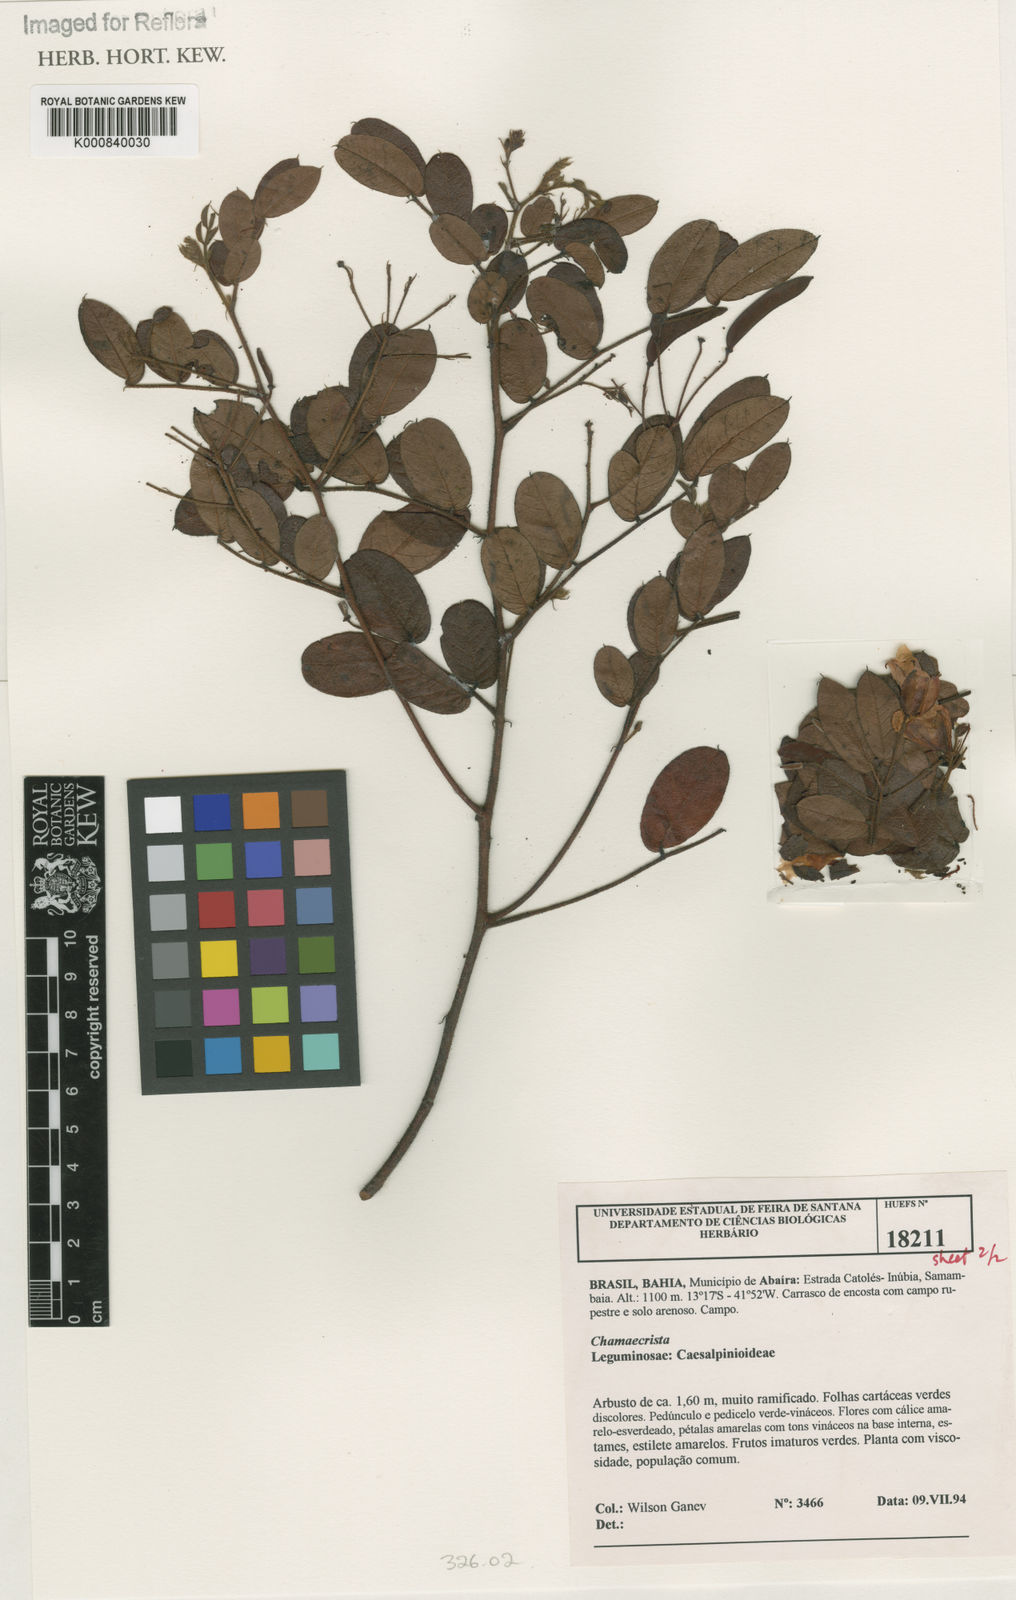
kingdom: Plantae
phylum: Tracheophyta
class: Magnoliopsida
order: Fabales
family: Fabaceae
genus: Chamaecrista
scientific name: Chamaecrista urophyllidia
